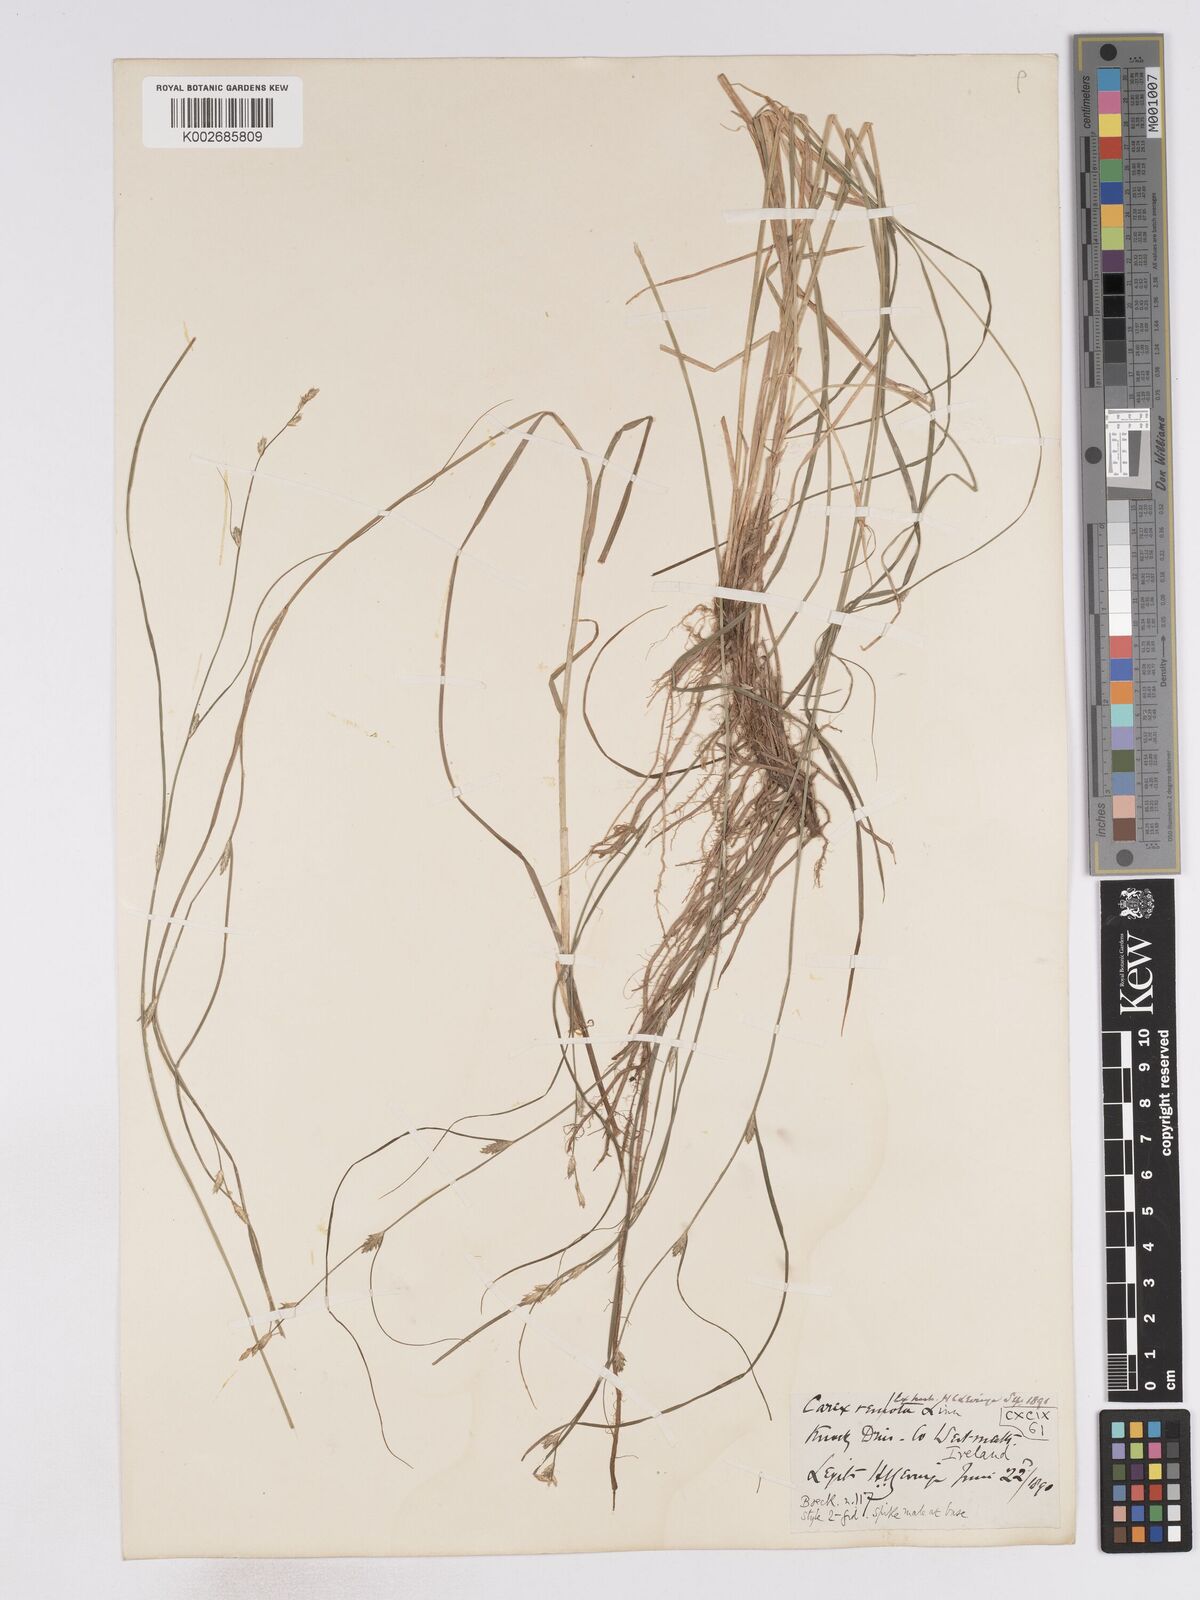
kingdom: Plantae
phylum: Tracheophyta
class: Liliopsida
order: Poales
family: Cyperaceae
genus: Carex
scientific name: Carex remota
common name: Remote sedge
